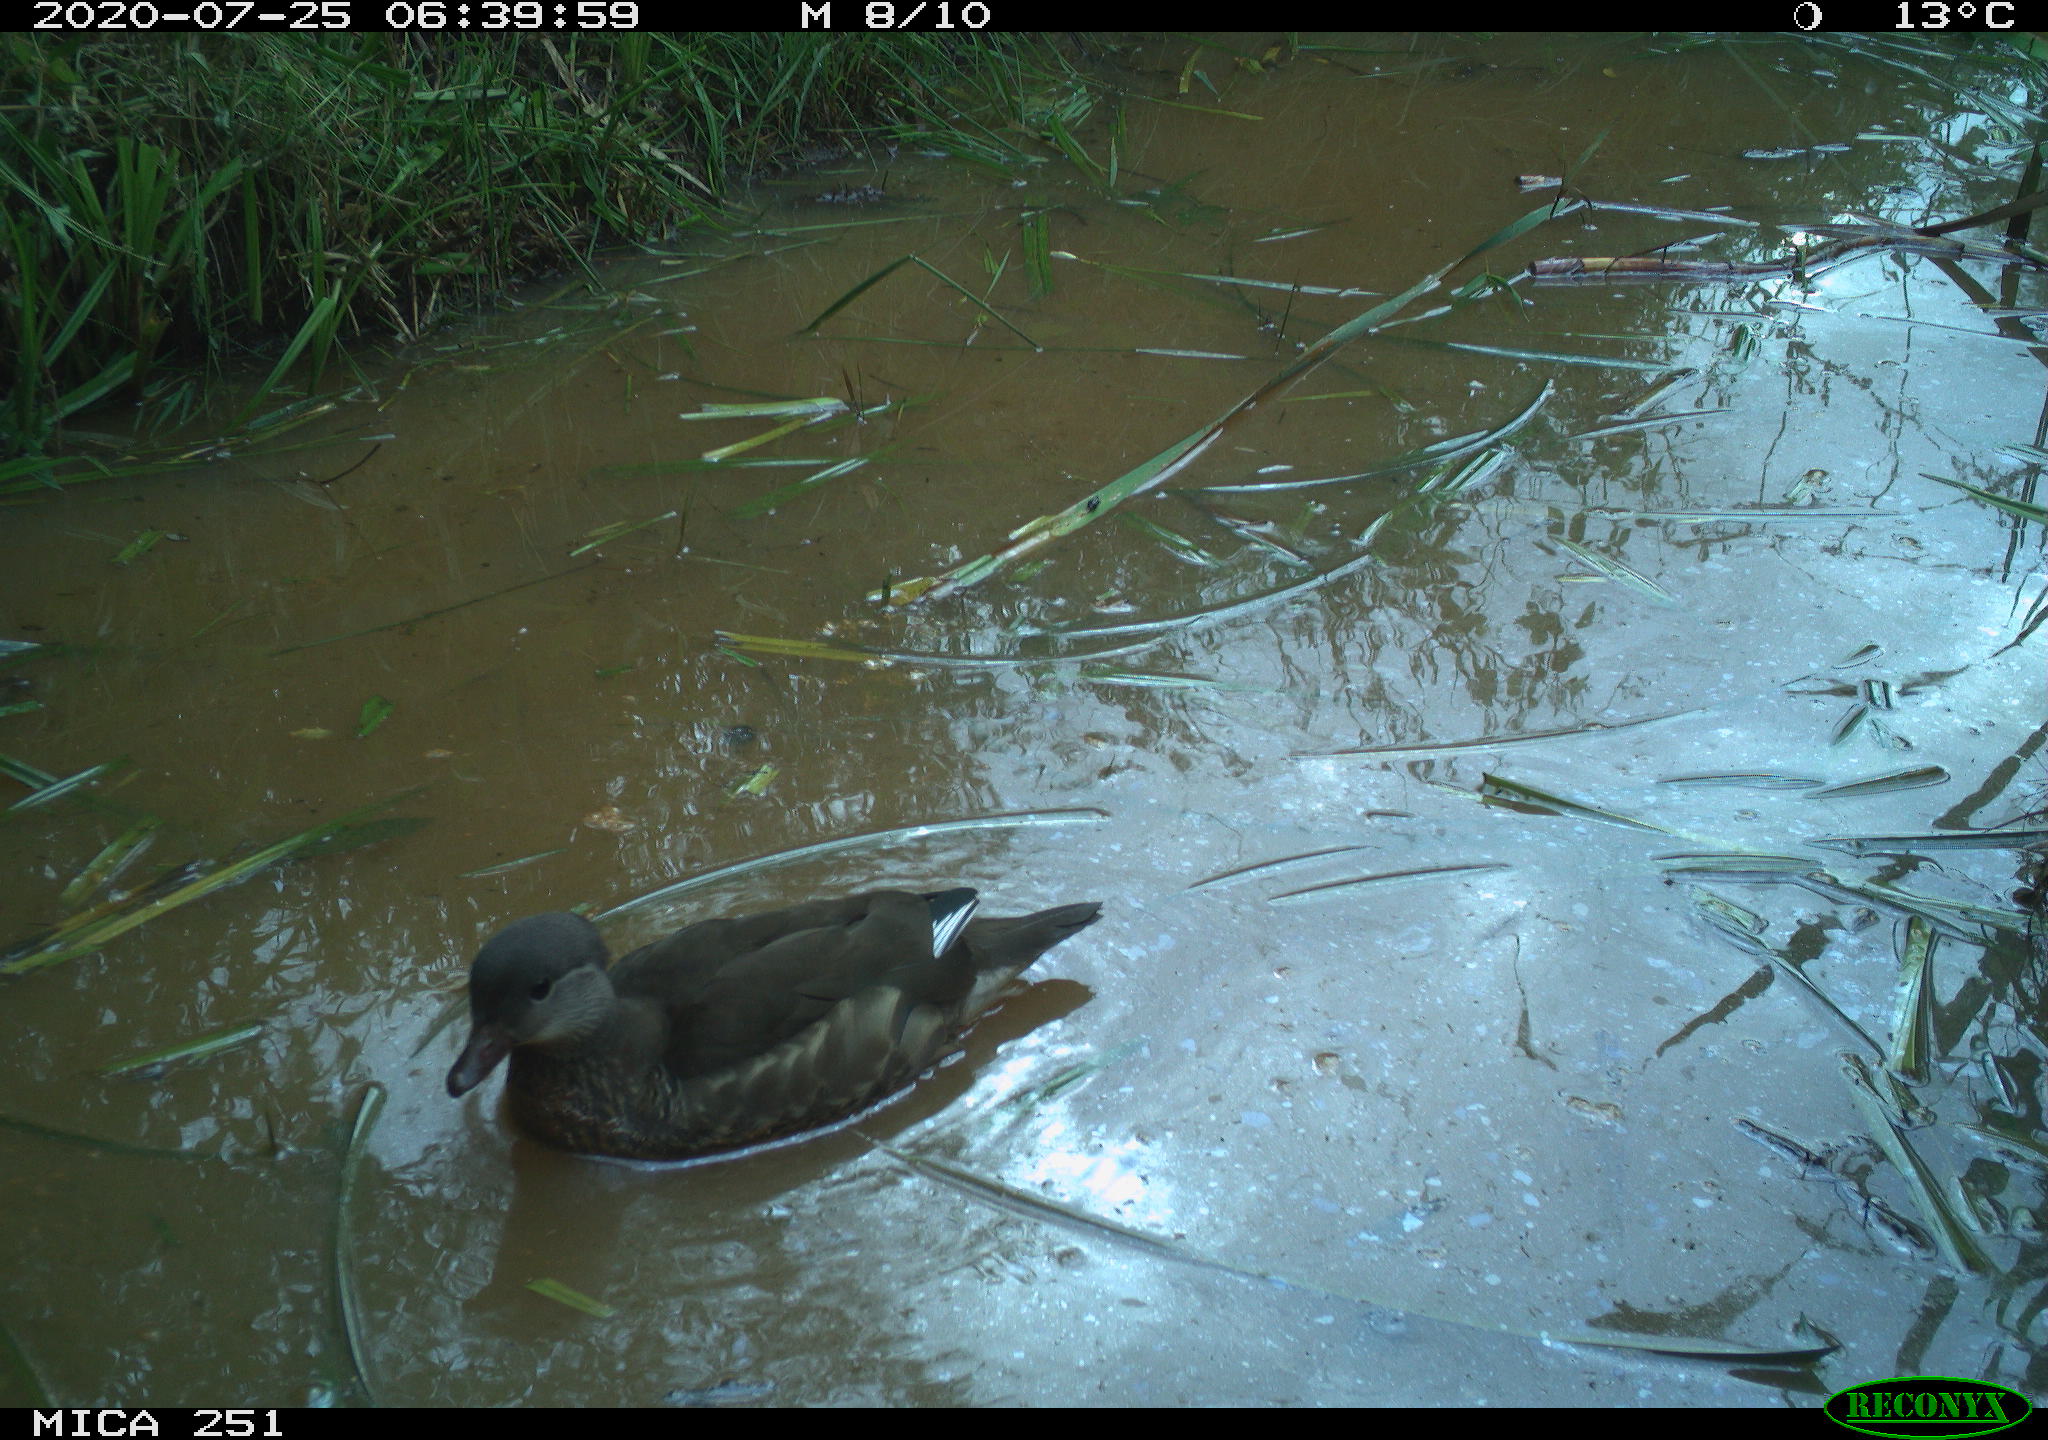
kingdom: Animalia
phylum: Chordata
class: Aves
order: Anseriformes
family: Anatidae
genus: Aix
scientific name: Aix galericulata
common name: Mandarin duck
